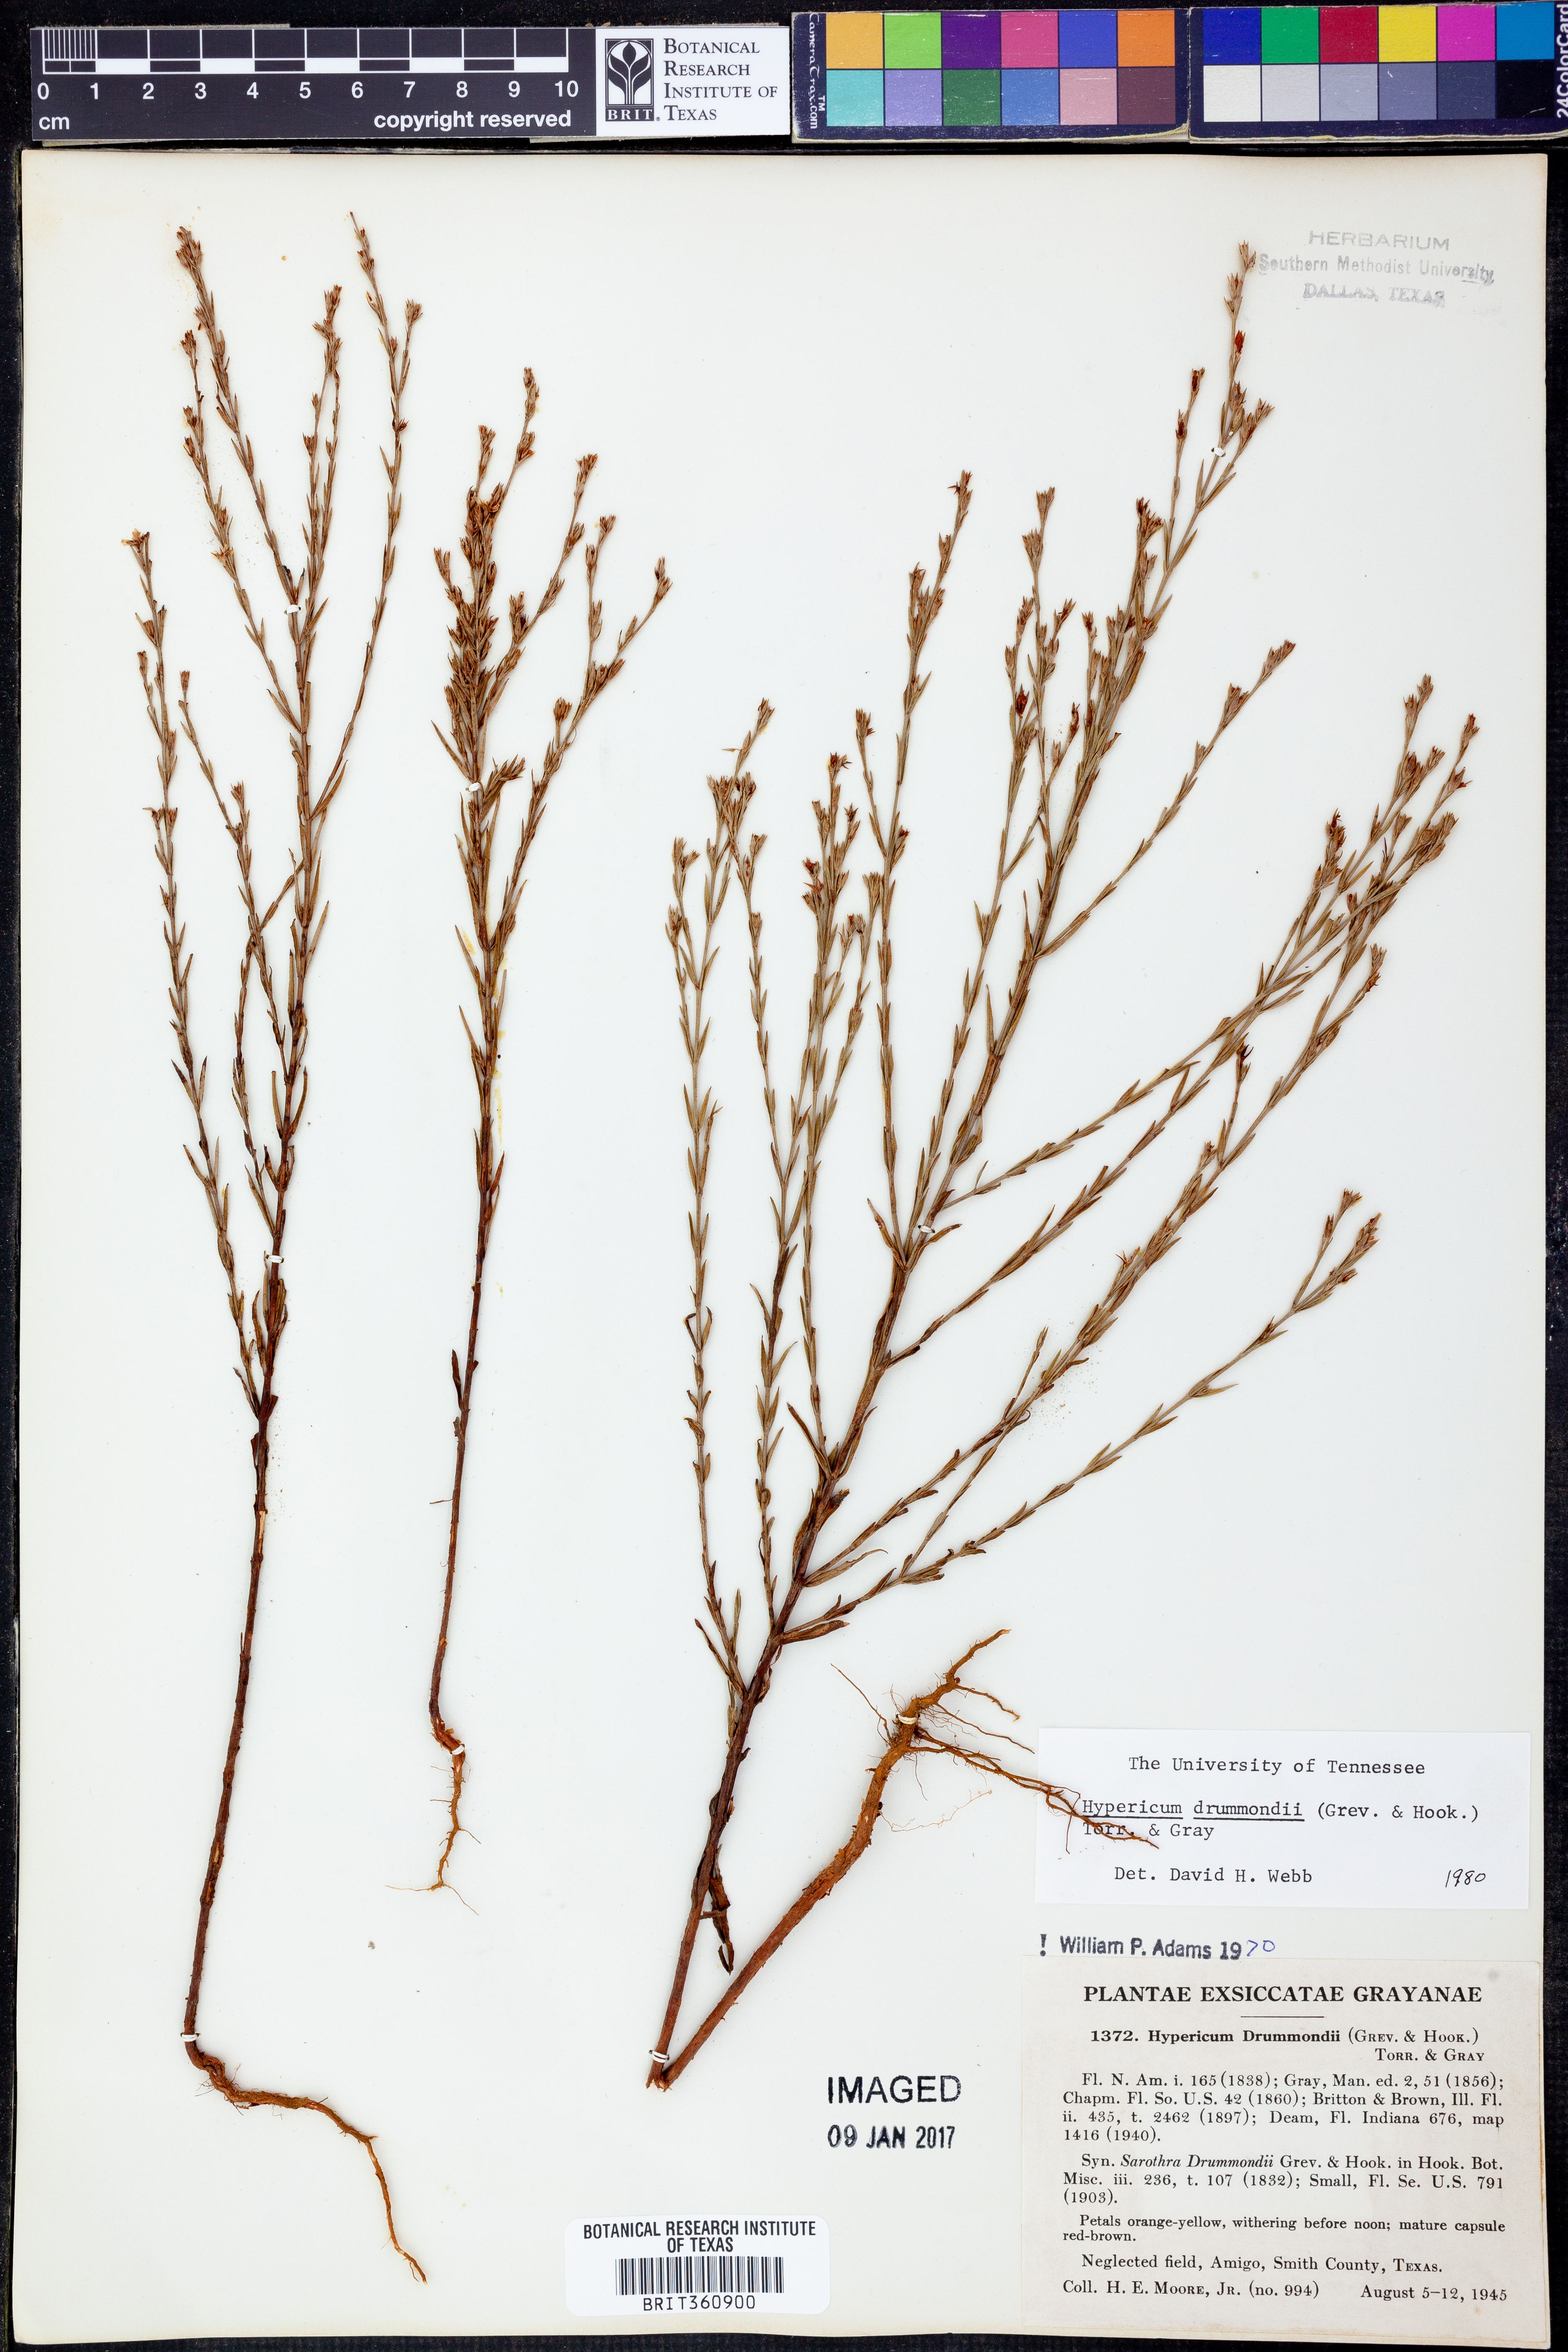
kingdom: Plantae
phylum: Tracheophyta
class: Magnoliopsida
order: Malpighiales
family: Hypericaceae
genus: Hypericum
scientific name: Hypericum drummondii
